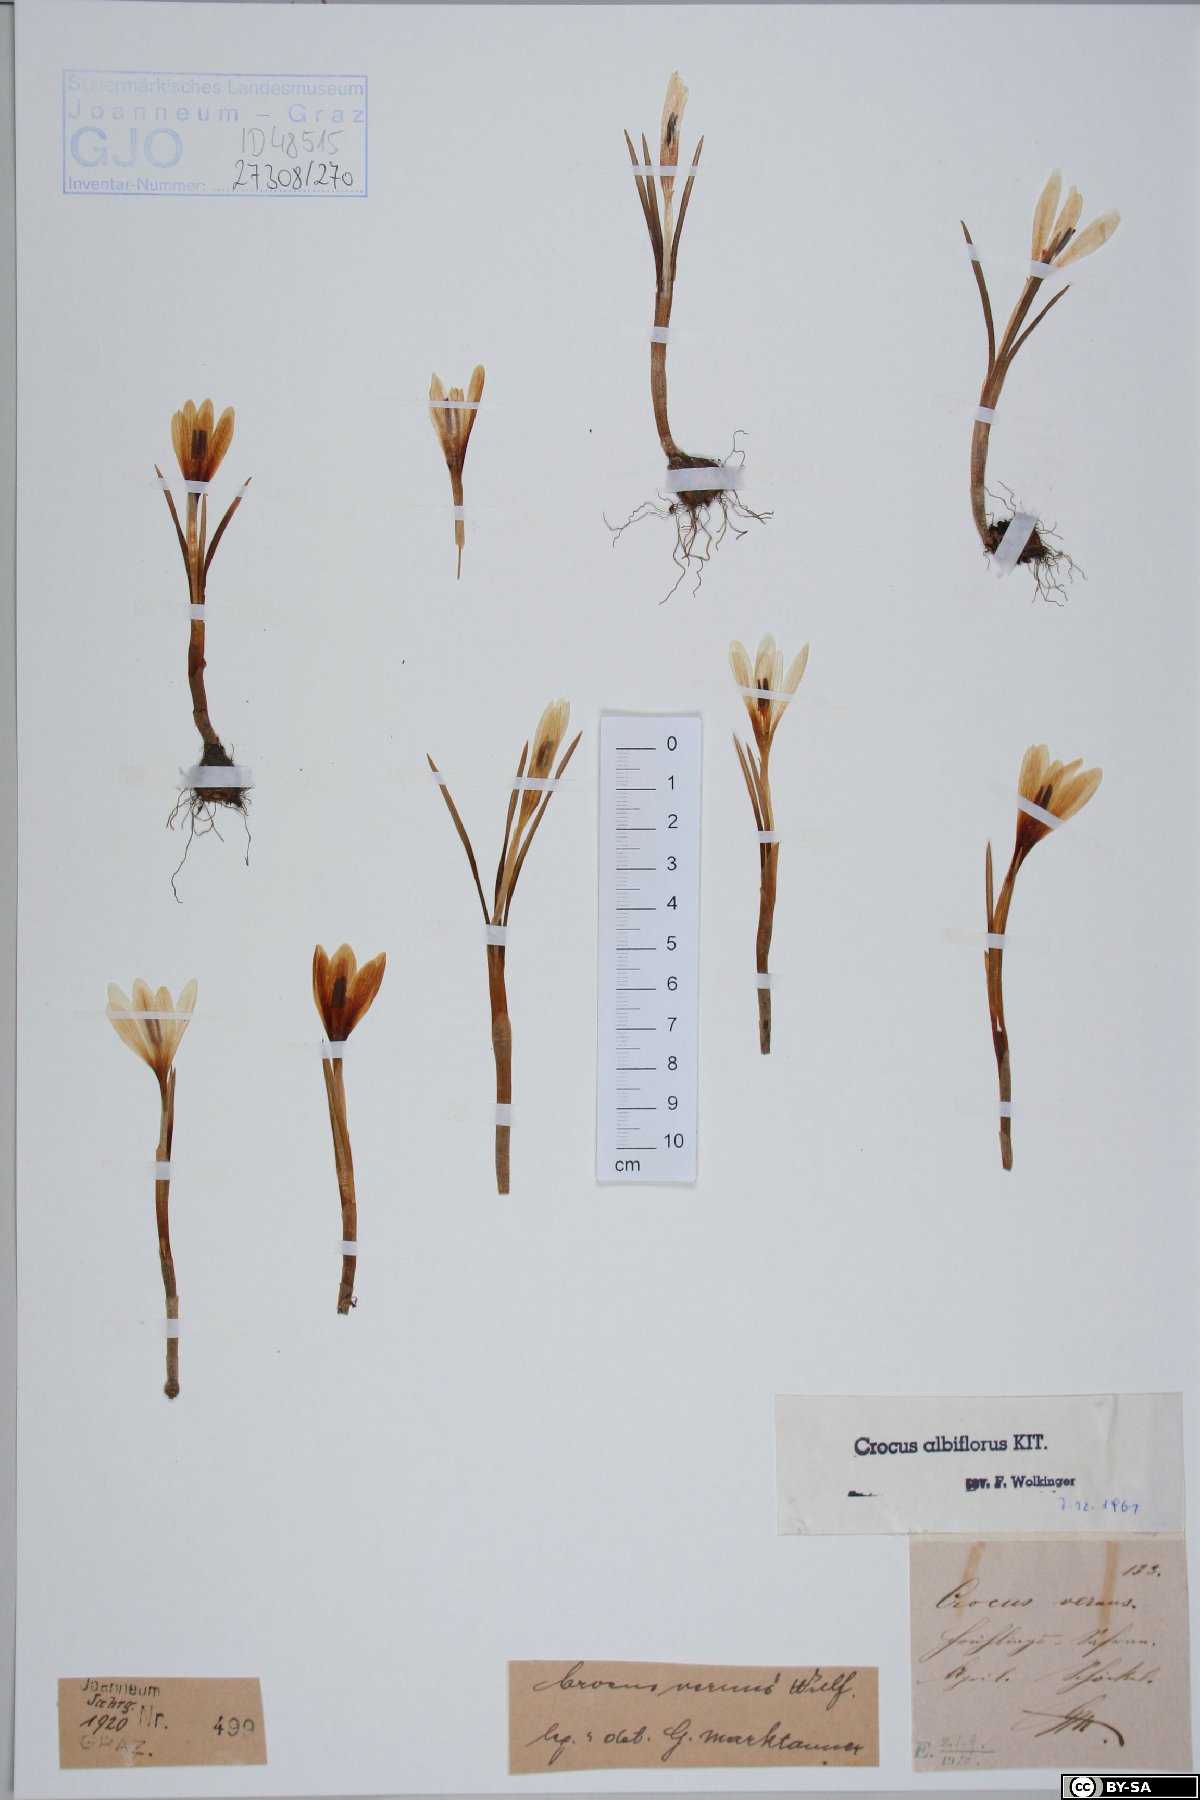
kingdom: Plantae
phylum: Tracheophyta
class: Liliopsida
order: Asparagales
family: Iridaceae
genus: Crocus
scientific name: Crocus vernus
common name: Spring crocus
